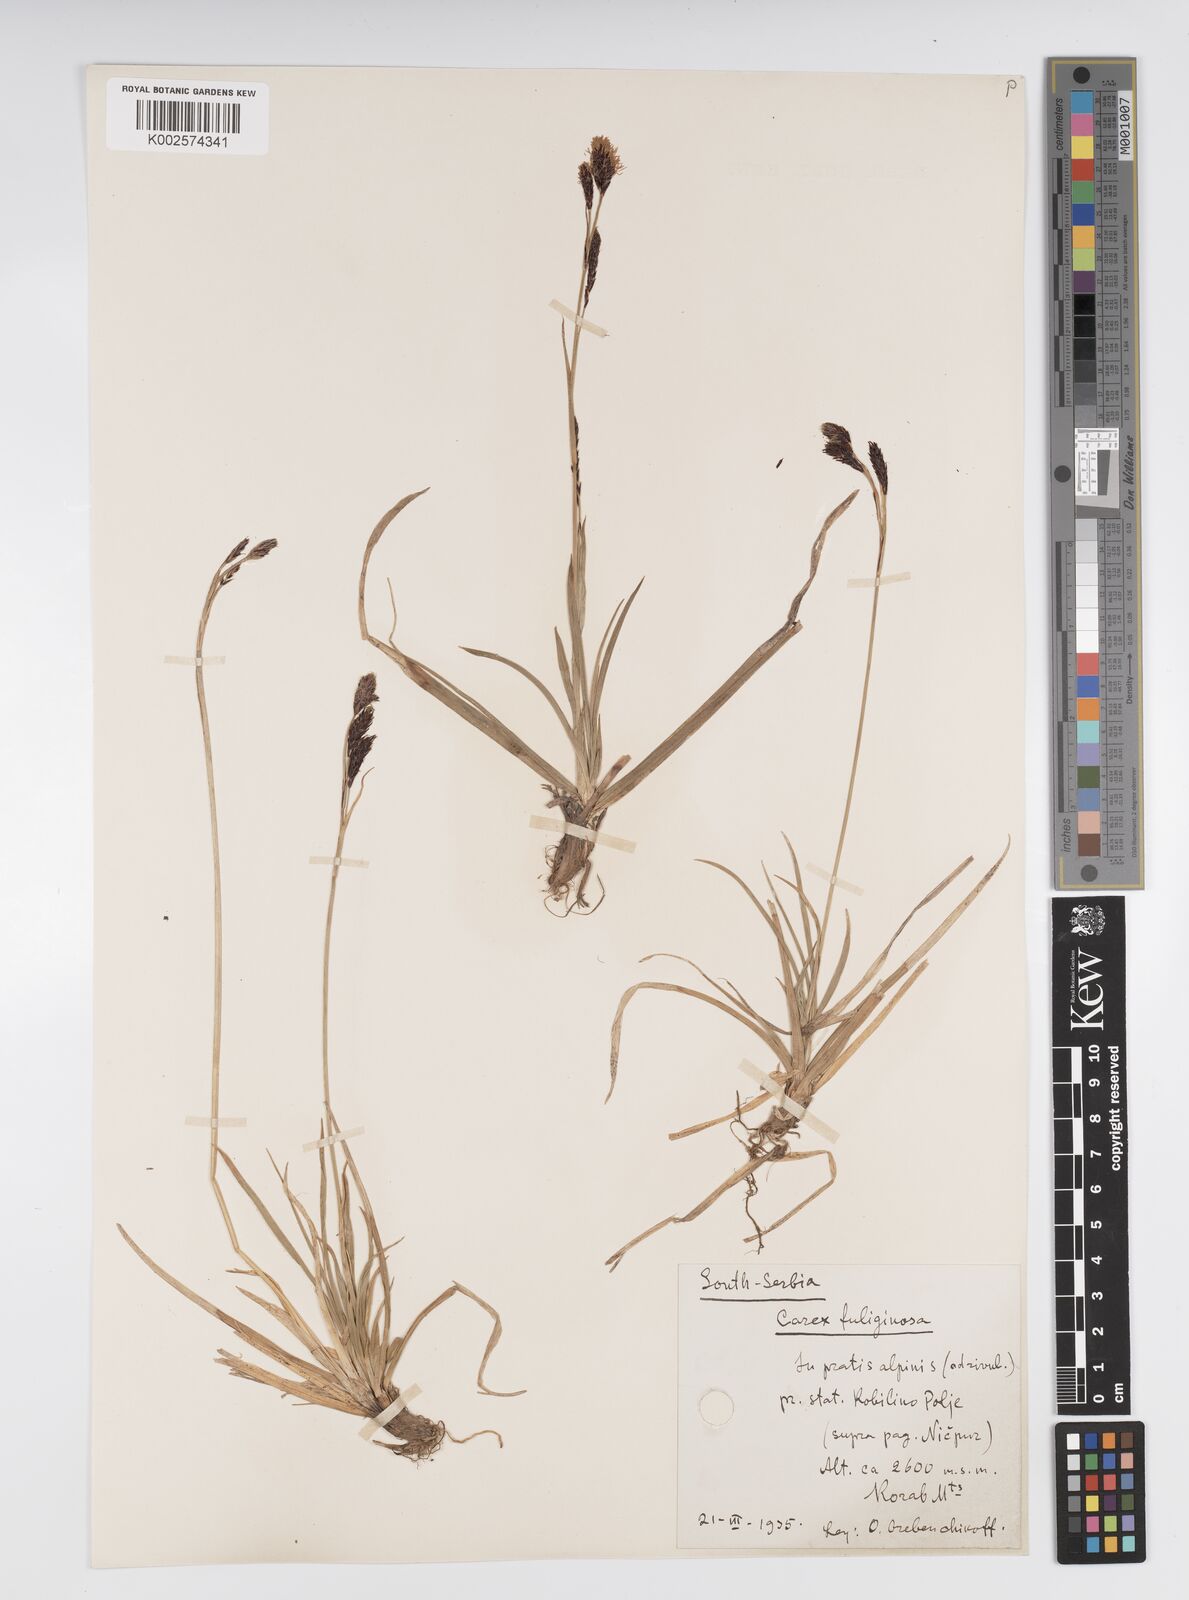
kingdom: Plantae
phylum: Tracheophyta
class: Liliopsida
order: Poales
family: Cyperaceae
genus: Carex
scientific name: Carex fuliginosa
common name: Few-flowered sedge
